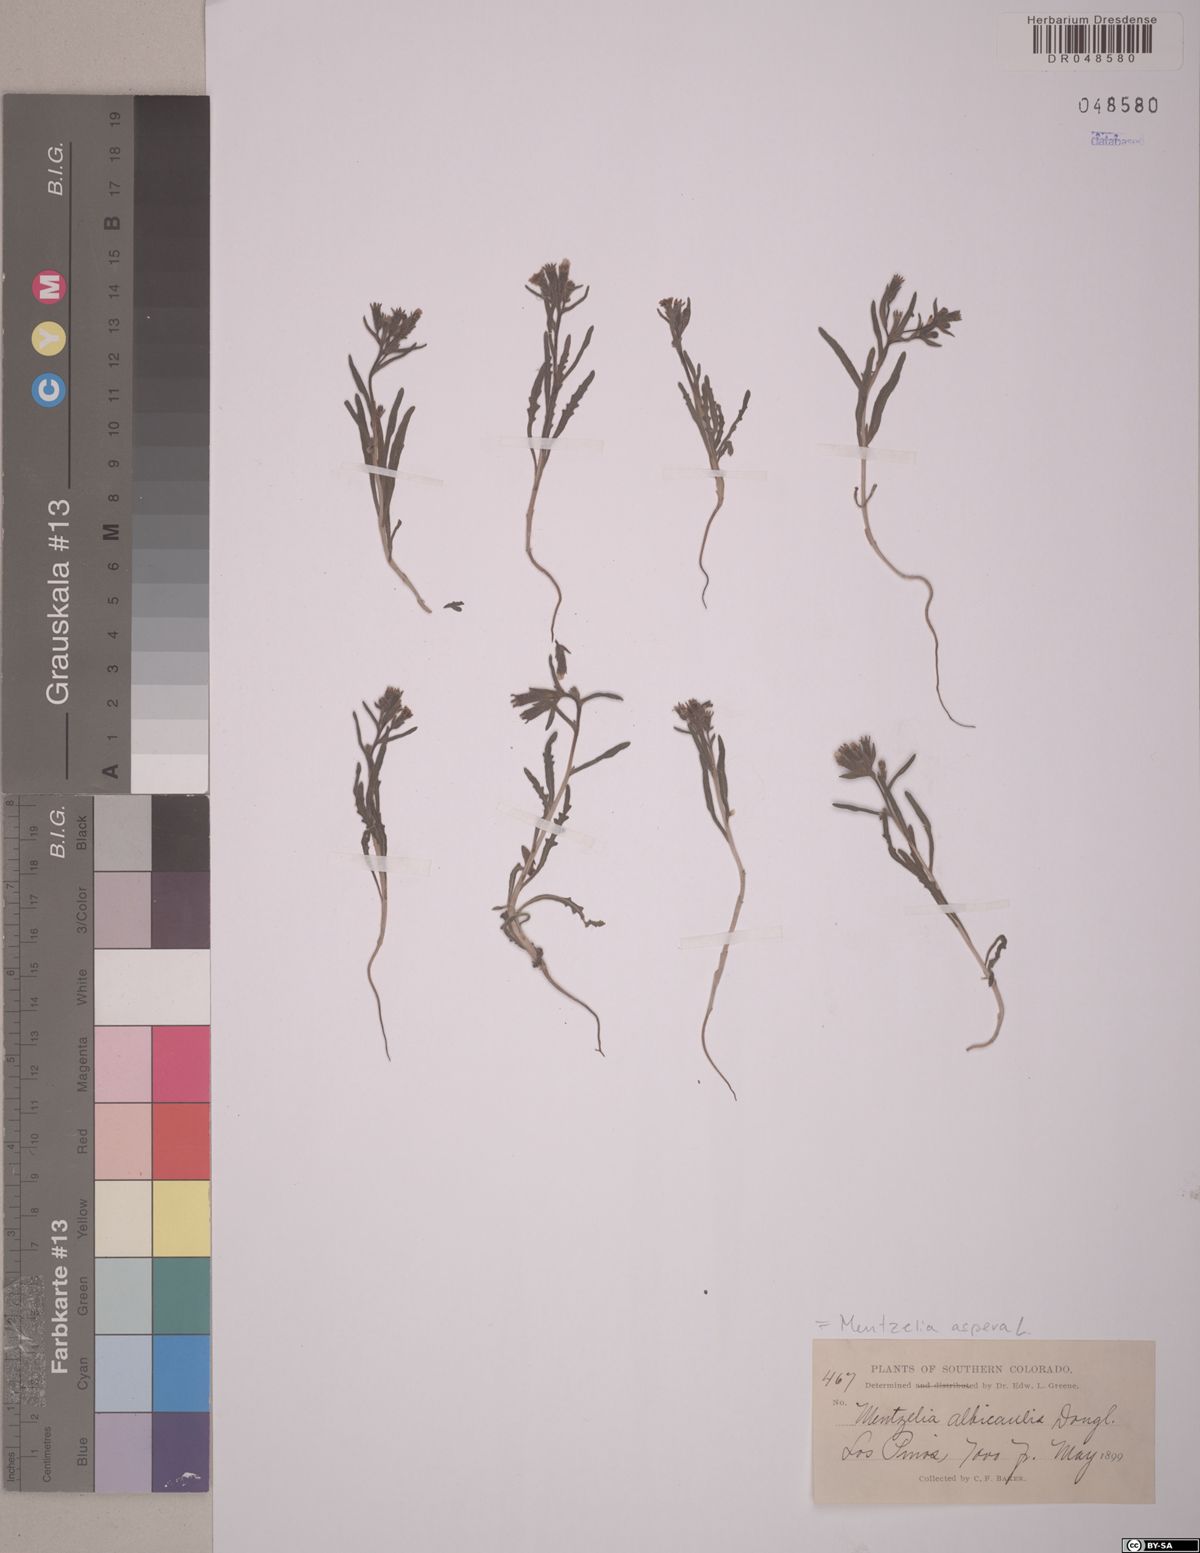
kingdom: Plantae
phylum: Tracheophyta
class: Magnoliopsida
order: Cornales
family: Loasaceae
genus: Mentzelia
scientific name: Mentzelia aspera
